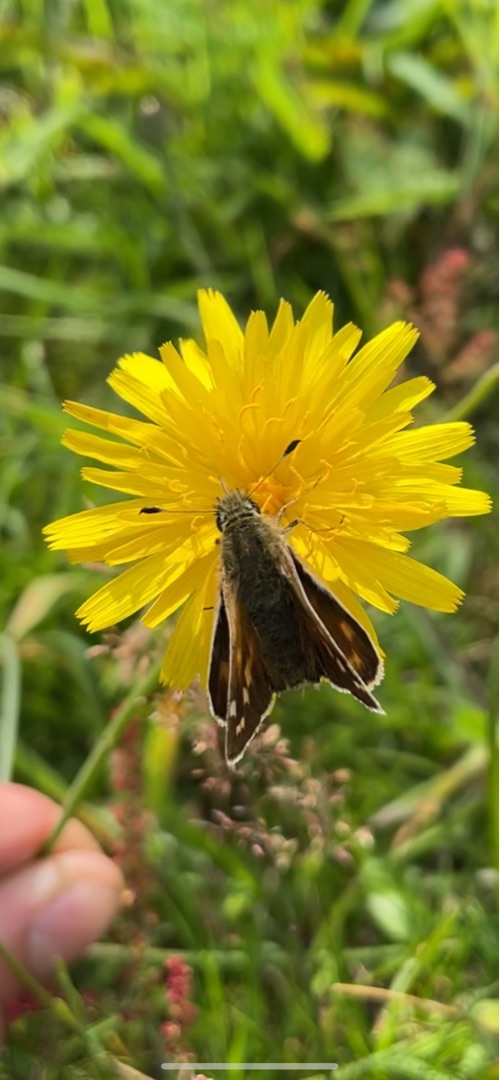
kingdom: Animalia
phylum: Arthropoda
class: Insecta
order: Lepidoptera
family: Hesperiidae
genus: Hesperia
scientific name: Hesperia comma
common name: Kommabredpande
